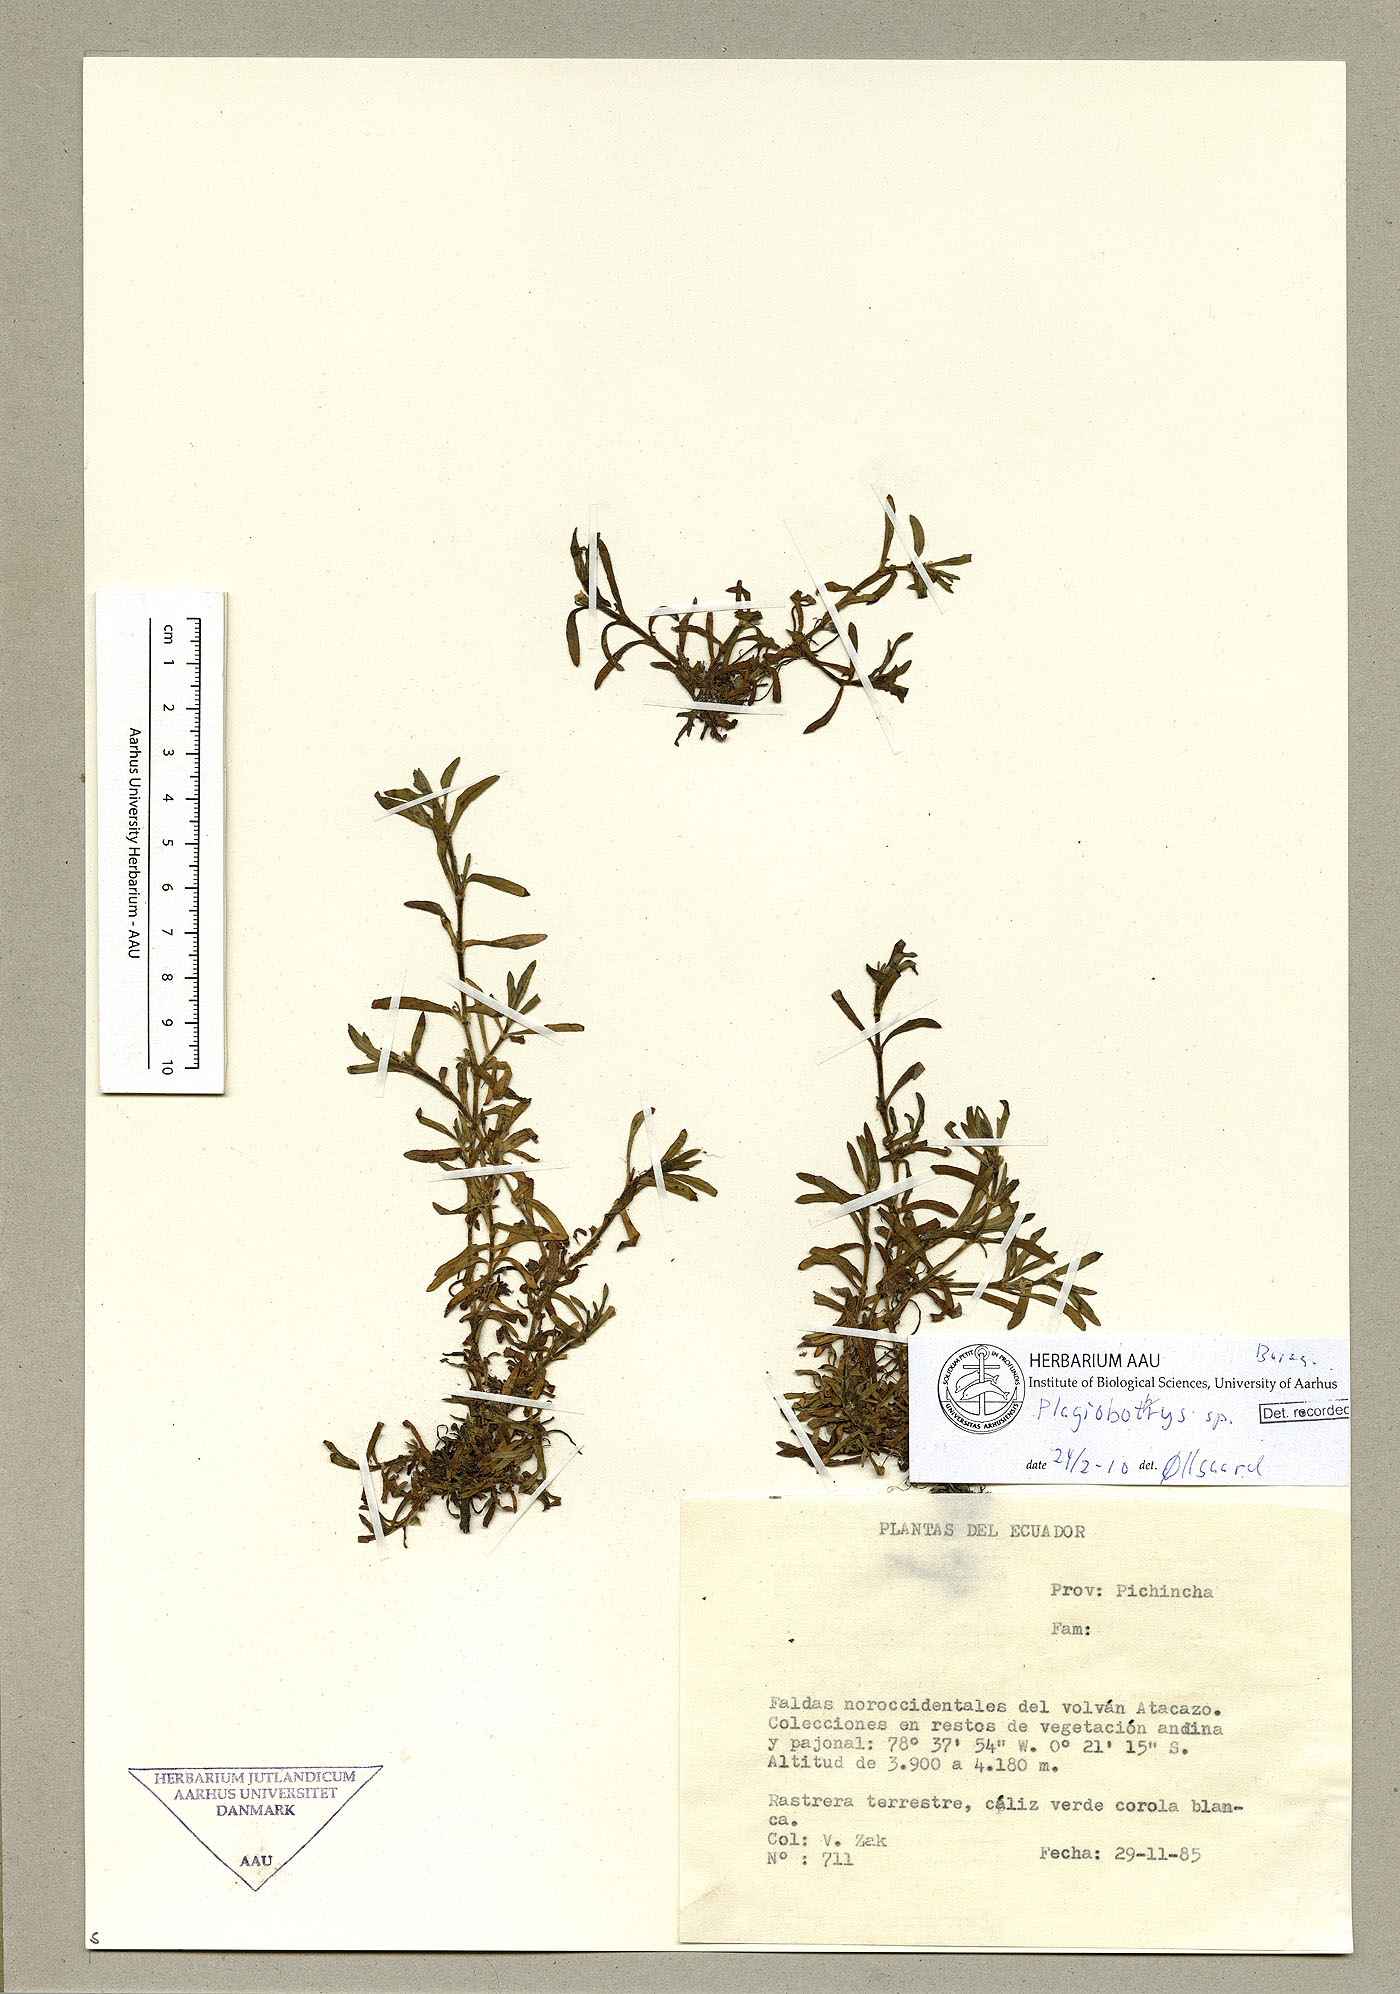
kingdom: Plantae
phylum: Tracheophyta
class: Magnoliopsida
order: Boraginales
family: Boraginaceae
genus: Plagiobothrys
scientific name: Plagiobothrys linifolius
